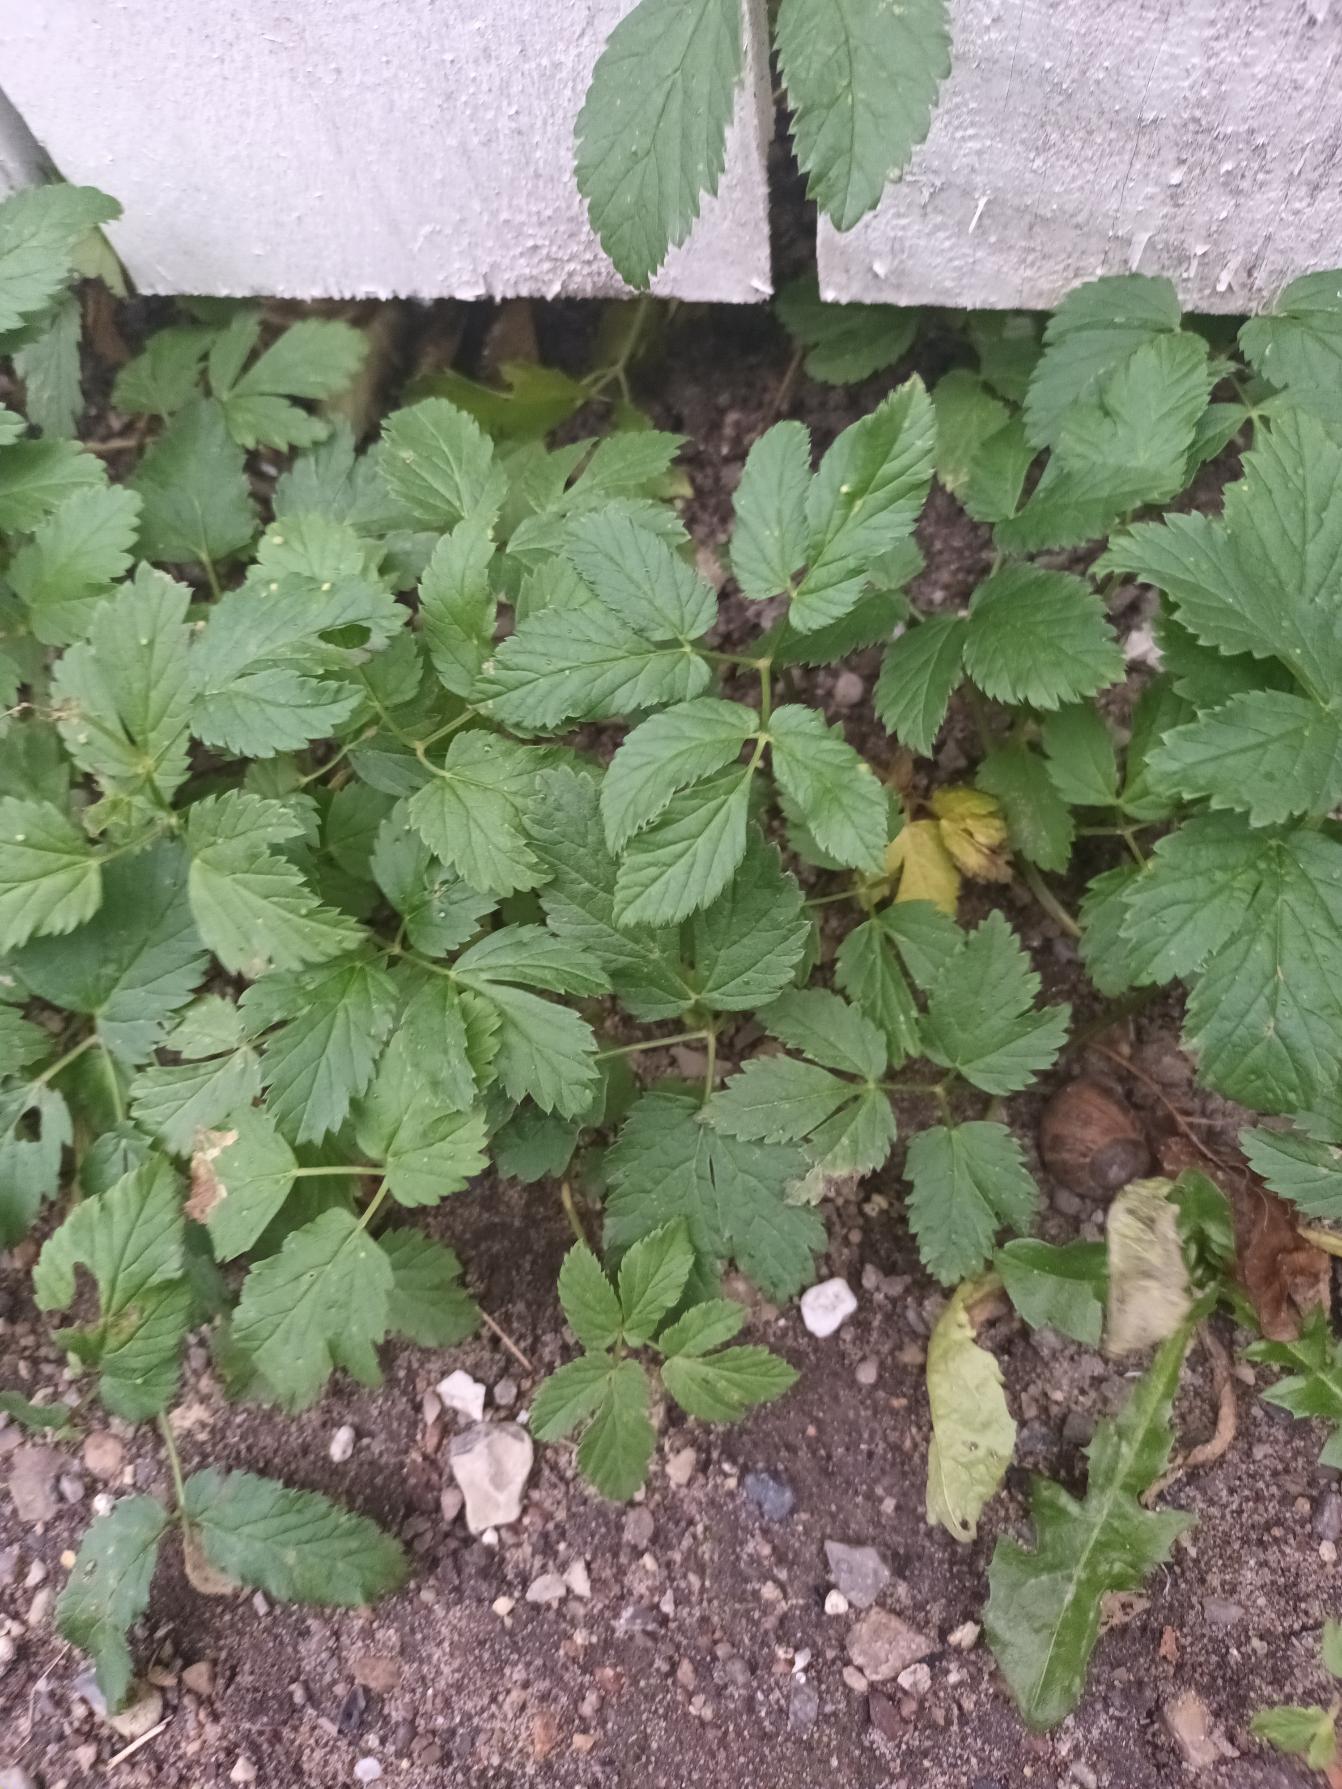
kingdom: Plantae
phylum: Tracheophyta
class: Magnoliopsida
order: Apiales
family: Apiaceae
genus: Aegopodium
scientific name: Aegopodium podagraria
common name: Skvalderkål
